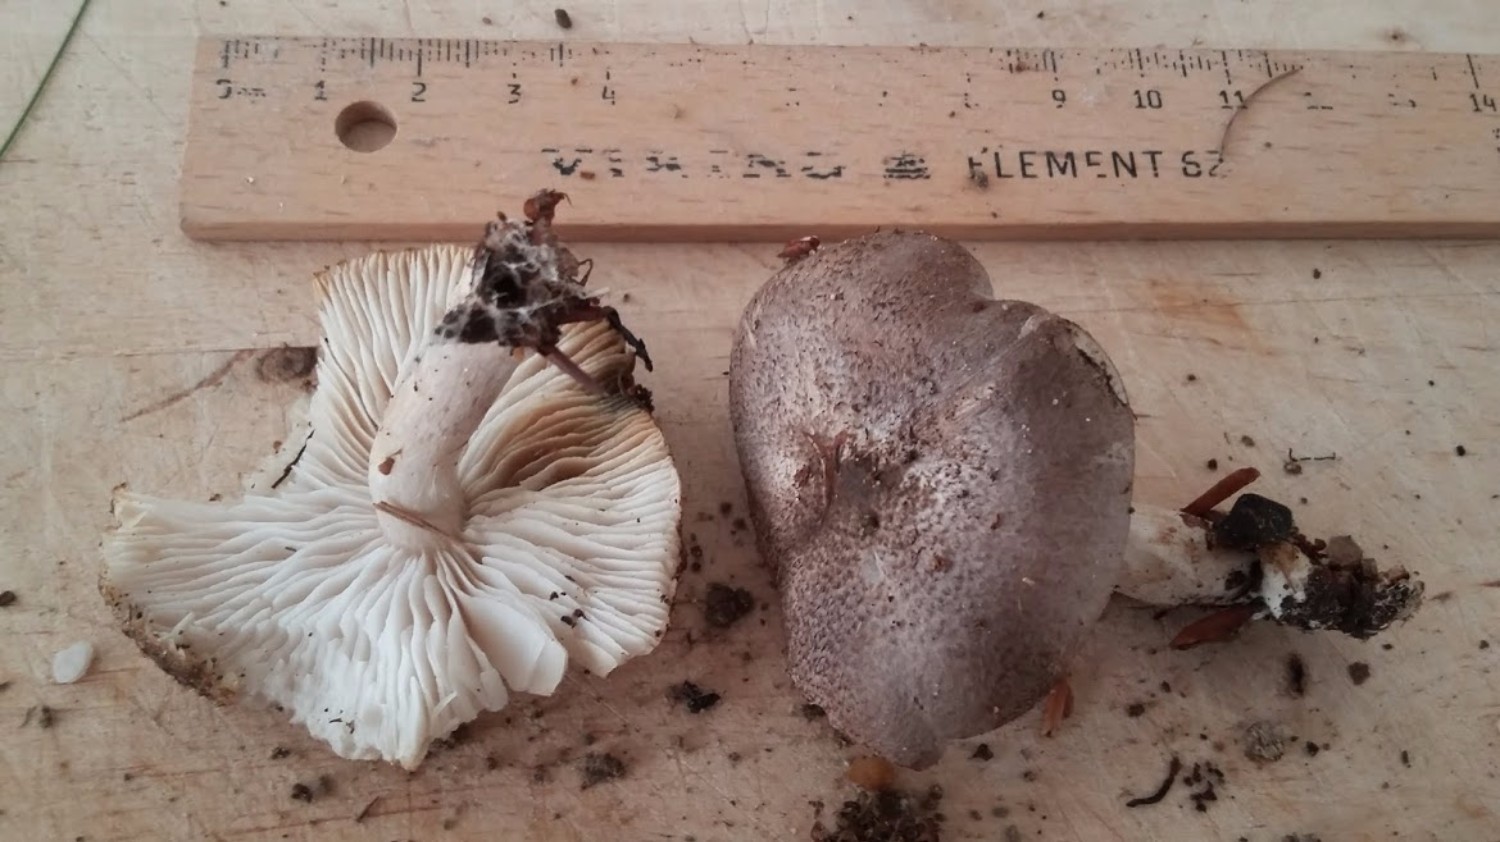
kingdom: Fungi
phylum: Basidiomycota
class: Agaricomycetes
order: Agaricales
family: Tricholomataceae
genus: Tricholoma
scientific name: Tricholoma scalpturatum
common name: gulplettet ridderhat
